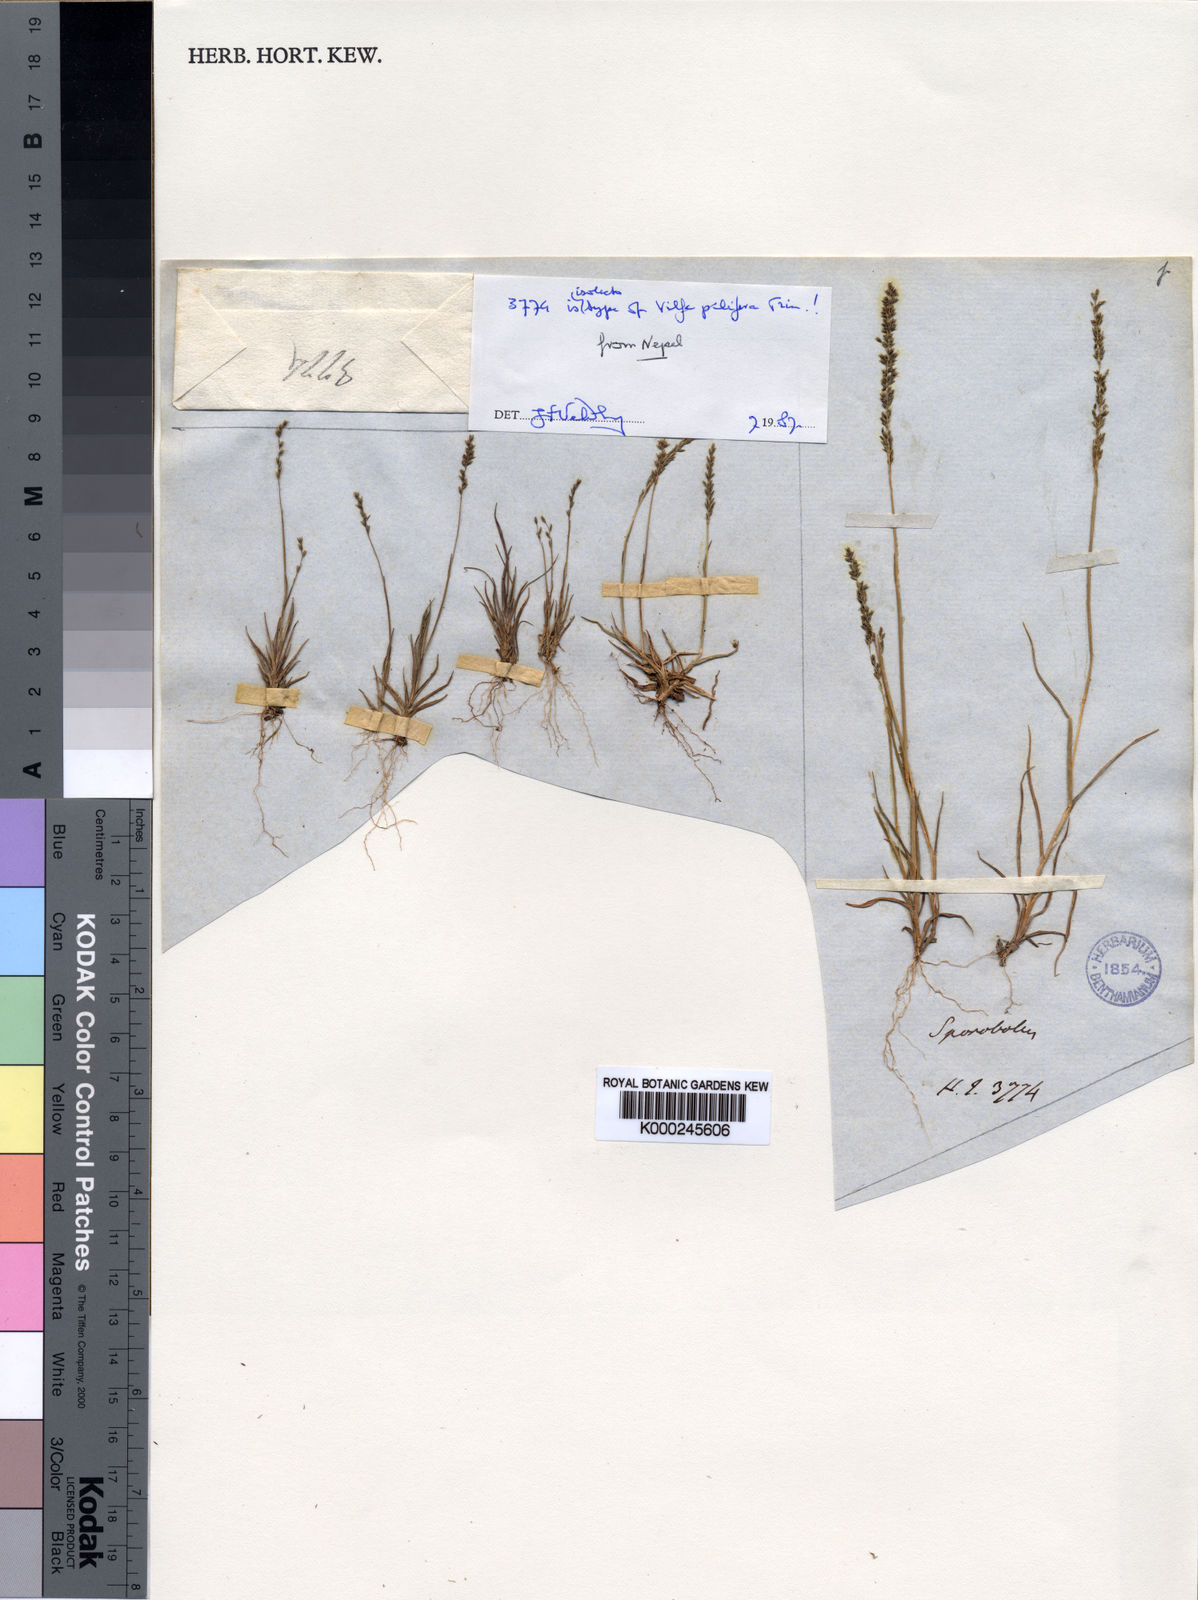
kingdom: Plantae
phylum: Tracheophyta
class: Liliopsida
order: Poales
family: Poaceae
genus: Sporobolus
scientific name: Sporobolus
